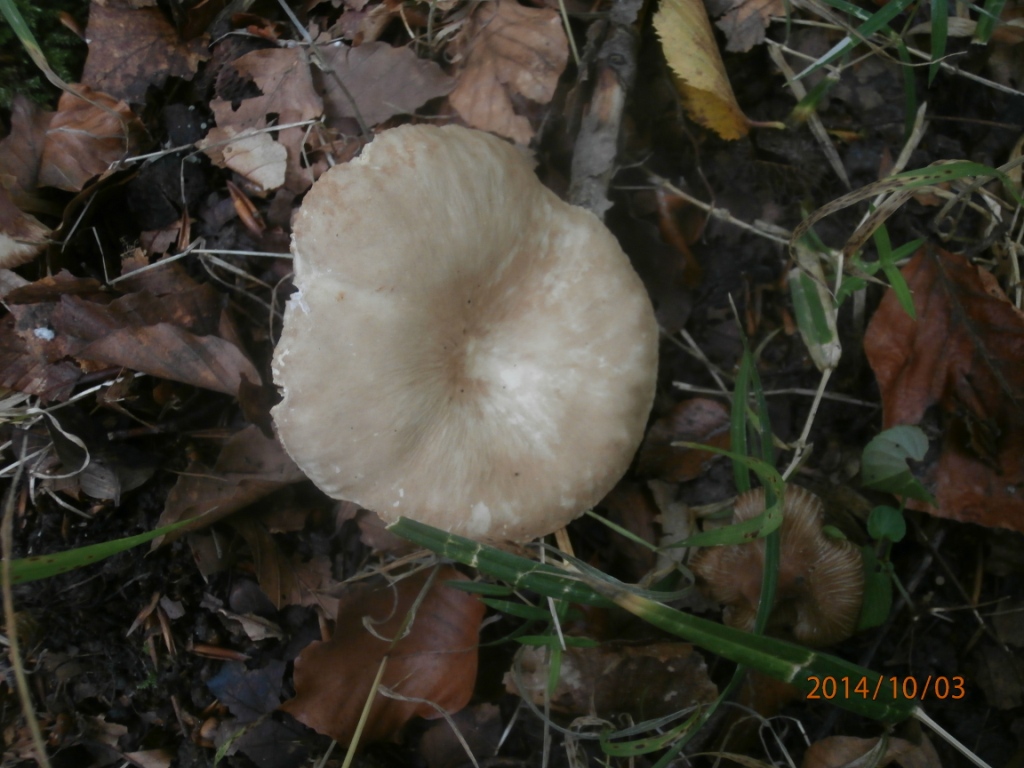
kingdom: Fungi
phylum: Basidiomycota
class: Agaricomycetes
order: Russulales
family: Russulaceae
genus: Lactarius
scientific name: Lactarius pterosporus
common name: vingesporet mælkehat
